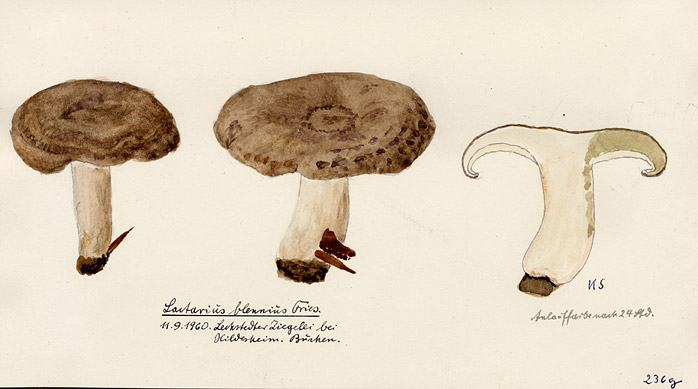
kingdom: Fungi
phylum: Basidiomycota
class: Agaricomycetes
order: Russulales
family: Russulaceae
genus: Lactarius
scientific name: Lactarius blennius
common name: Beech milkcap
